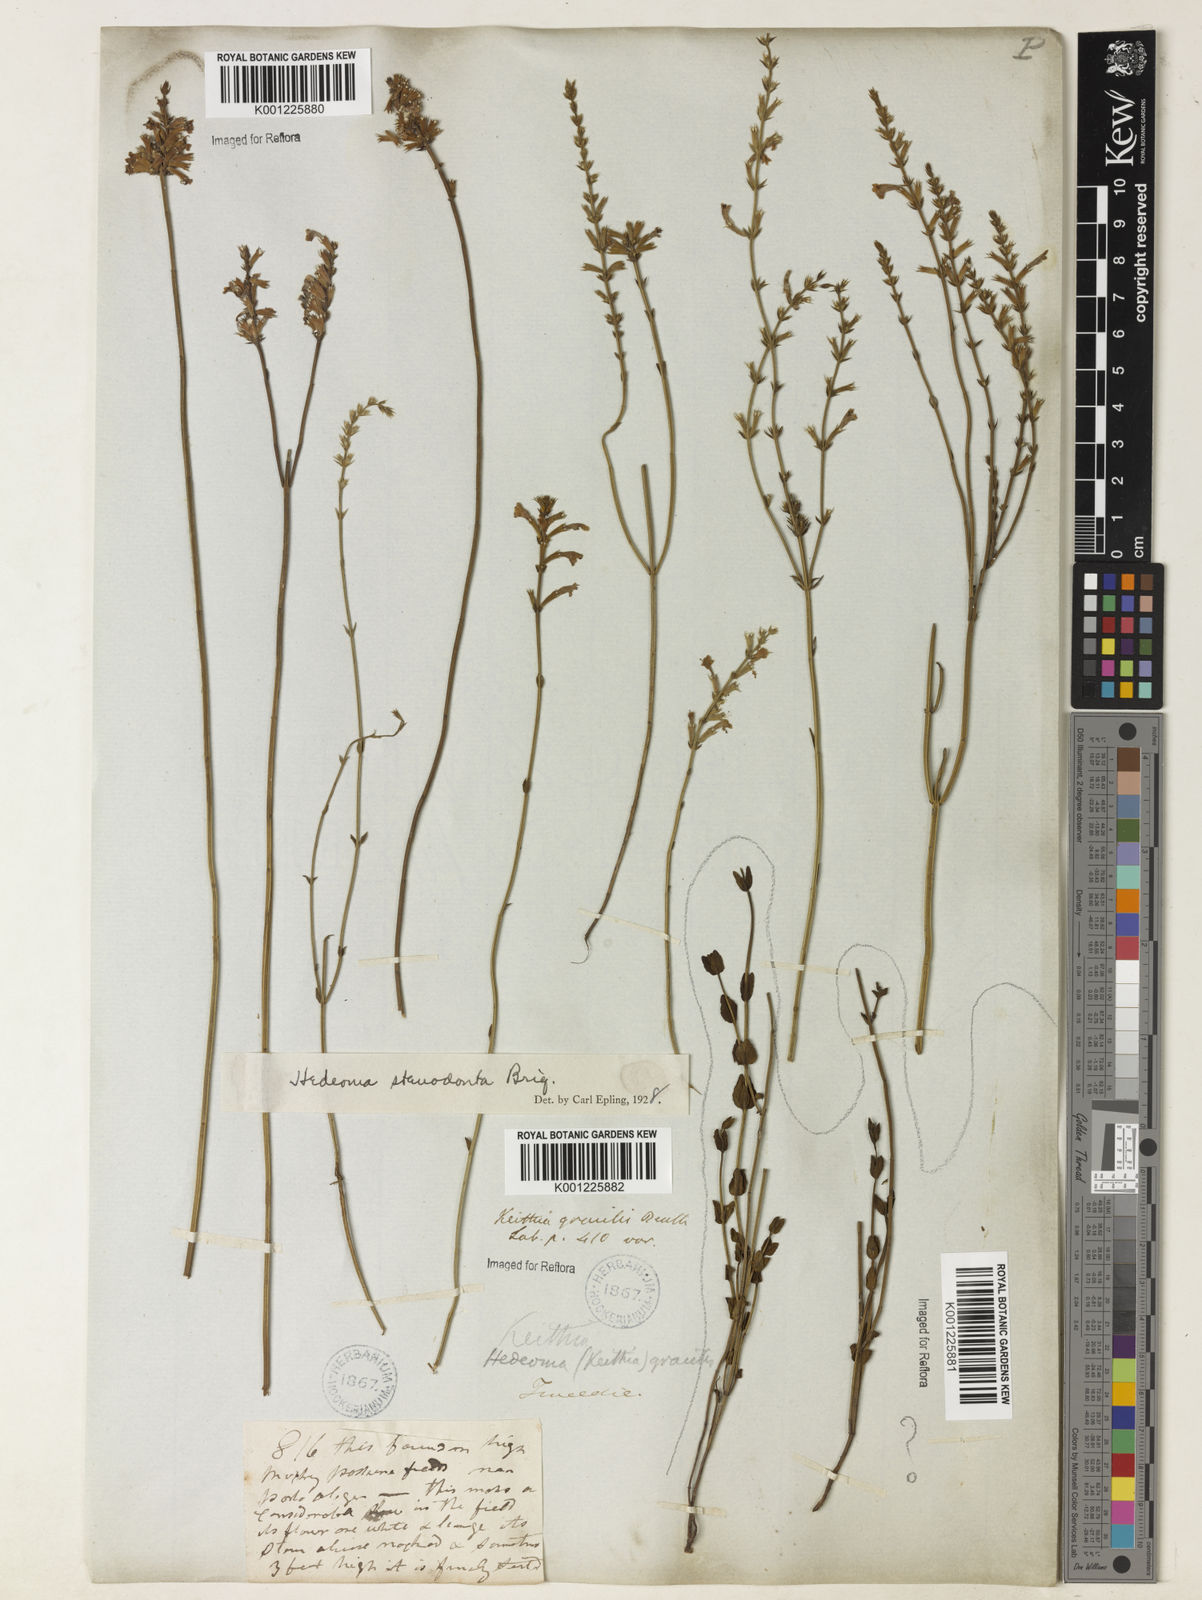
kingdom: Plantae
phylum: Tracheophyta
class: Magnoliopsida
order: Lamiales
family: Lamiaceae
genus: Rhabdocaulon
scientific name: Rhabdocaulon stenodontum
